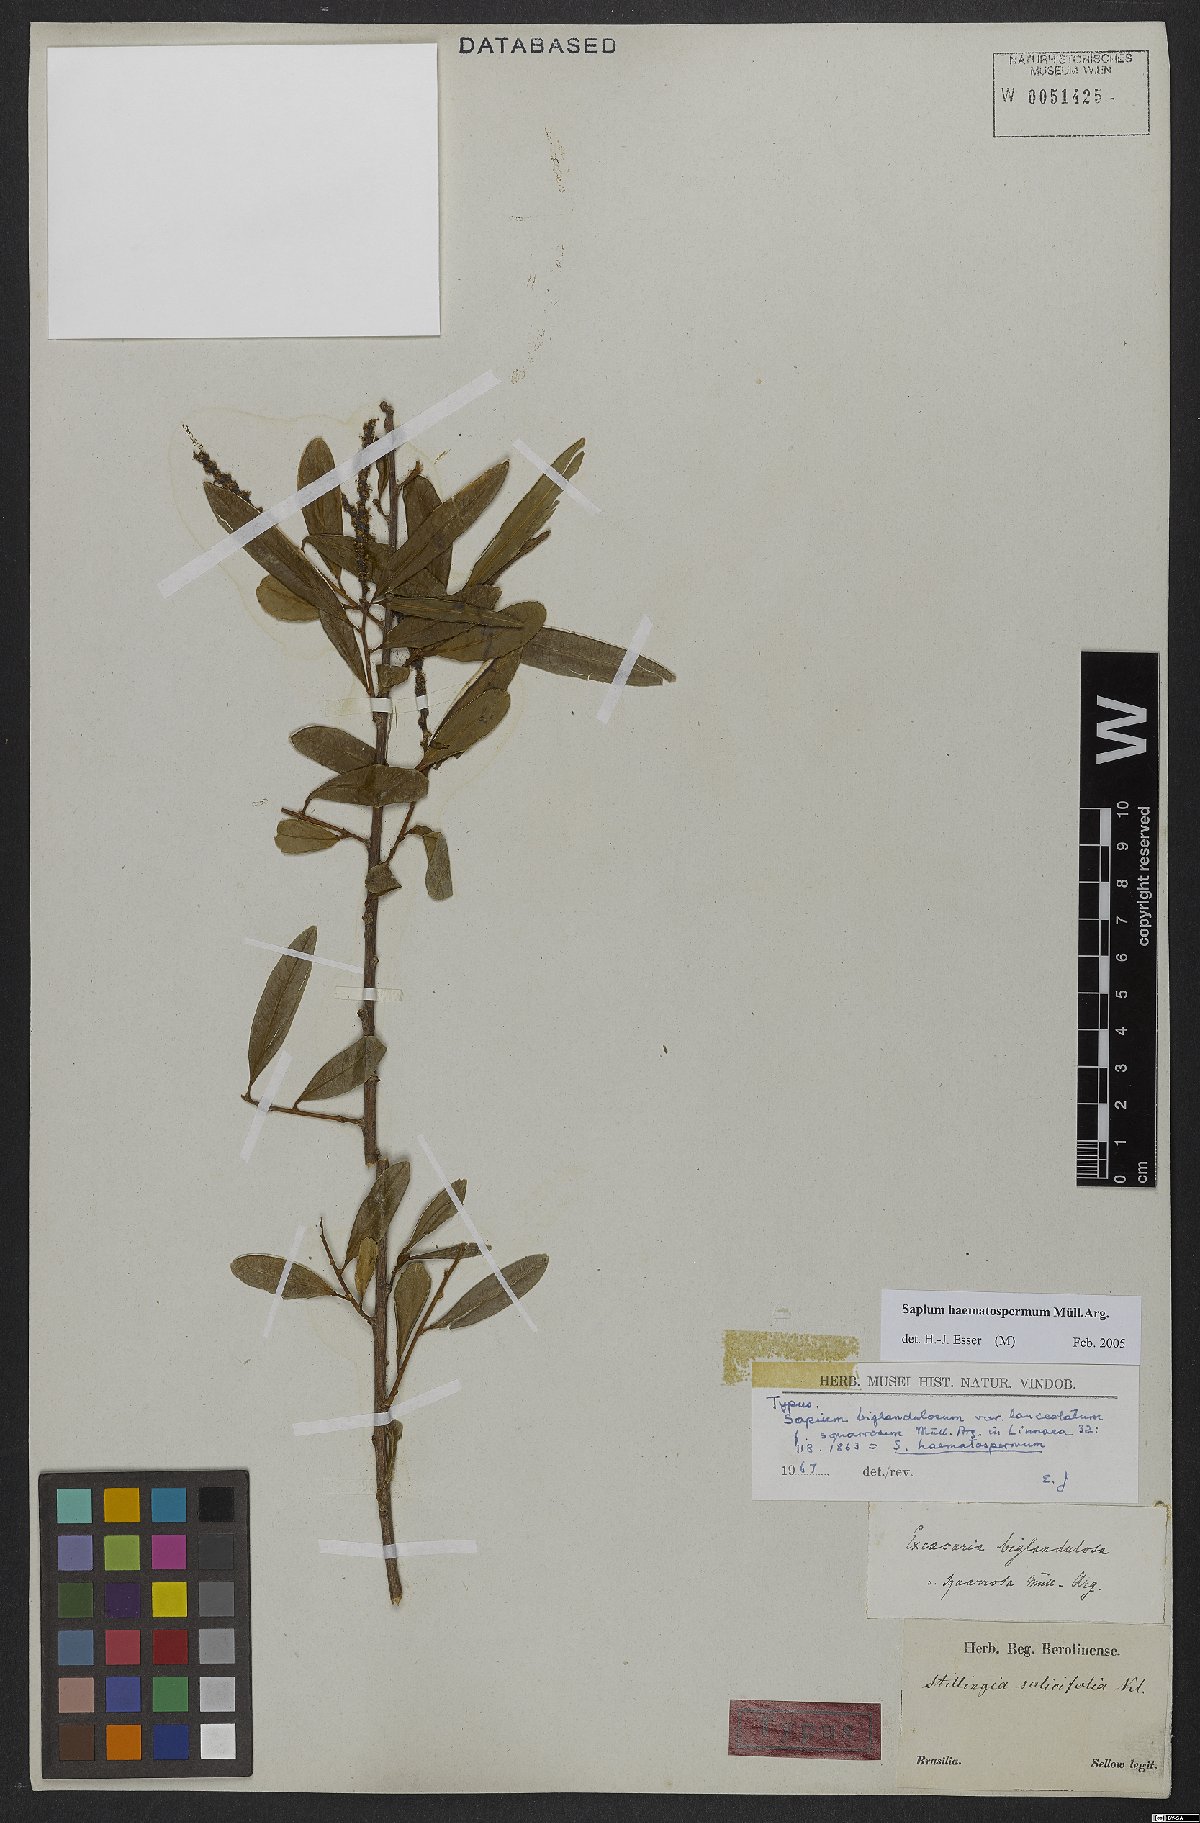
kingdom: Plantae
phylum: Tracheophyta
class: Magnoliopsida
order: Malpighiales
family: Euphorbiaceae
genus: Sapium
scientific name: Sapium haematospermum
